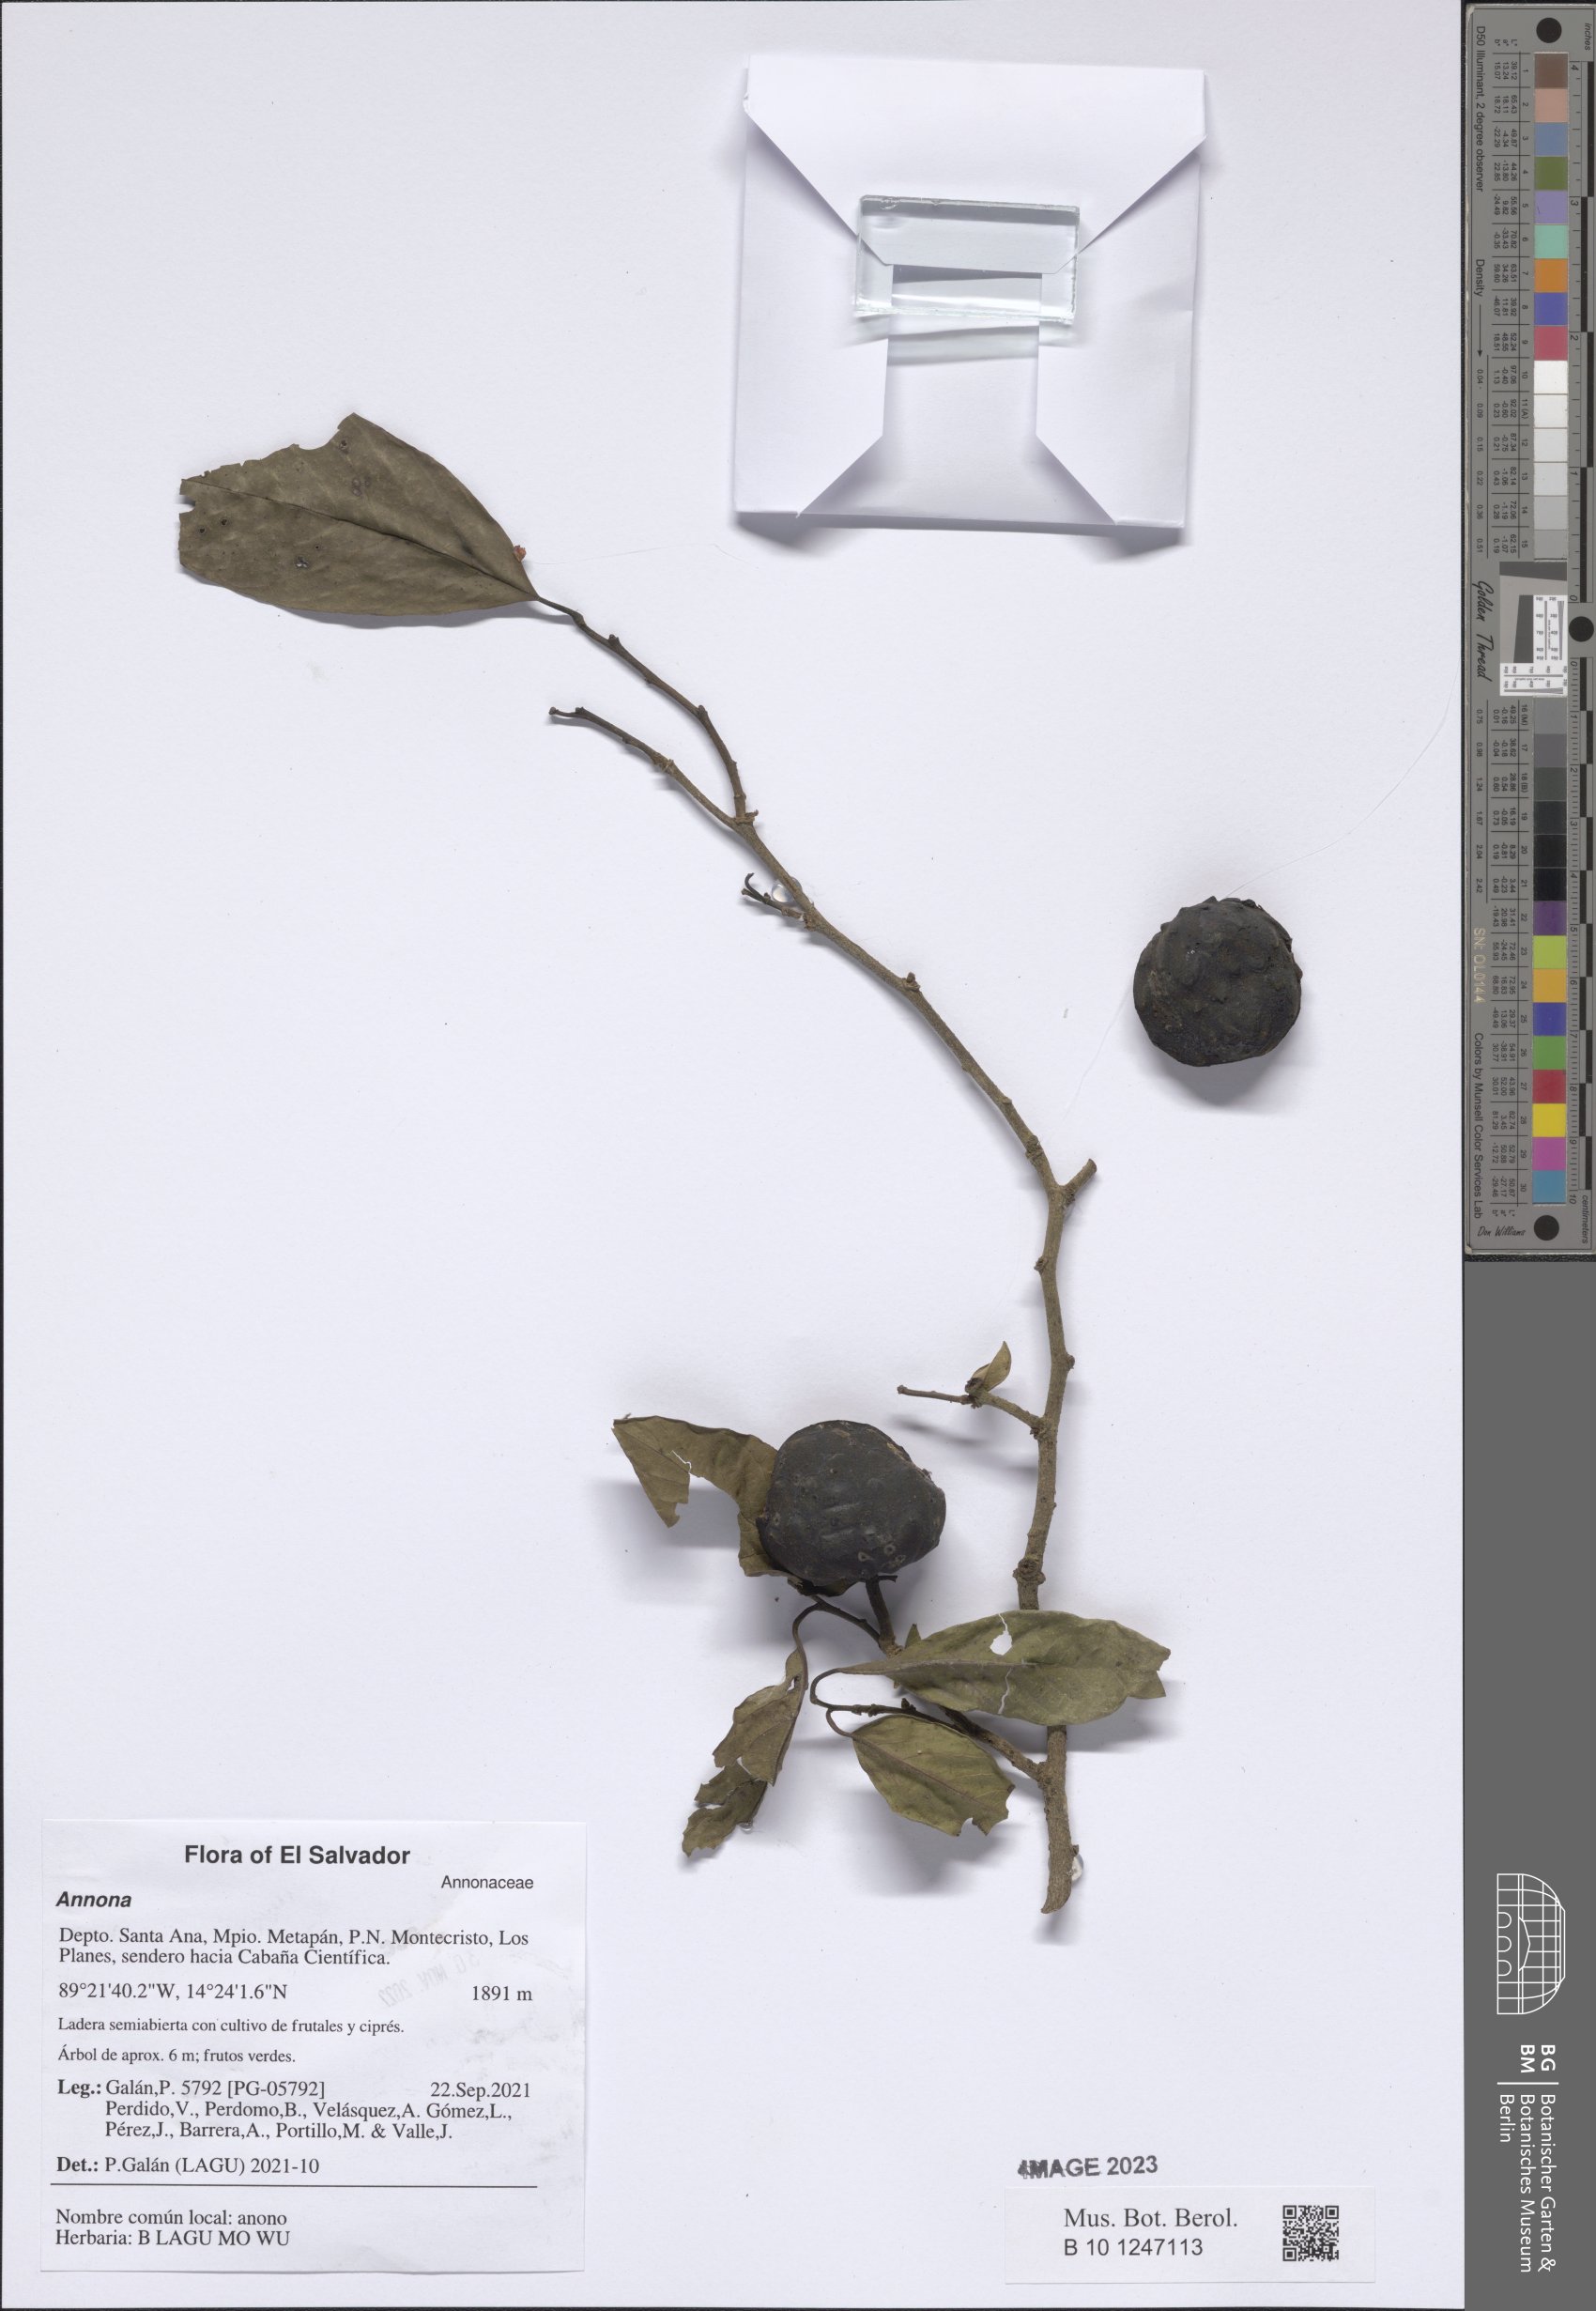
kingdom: Plantae
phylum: Tracheophyta
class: Magnoliopsida
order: Magnoliales
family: Annonaceae
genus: Annona
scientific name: Annona
